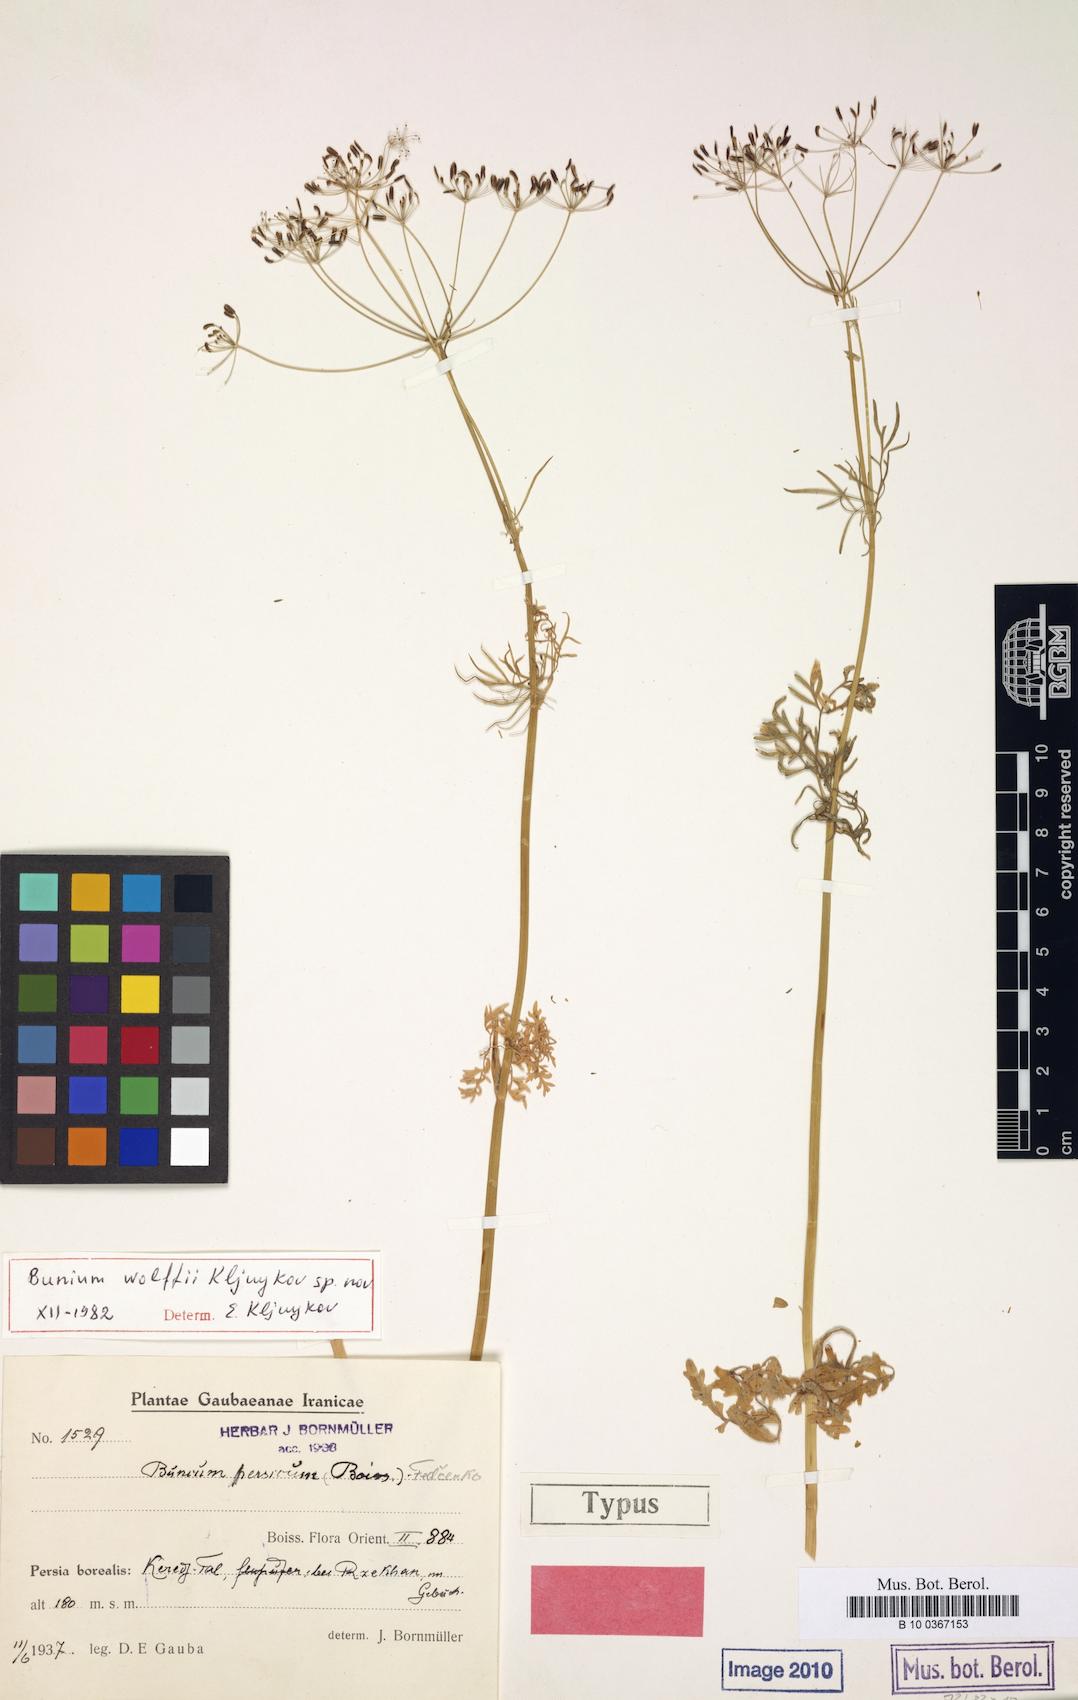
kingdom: Plantae
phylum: Tracheophyta
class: Magnoliopsida
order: Apiales
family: Apiaceae
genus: Elwendia
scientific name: Elwendia wolffii
